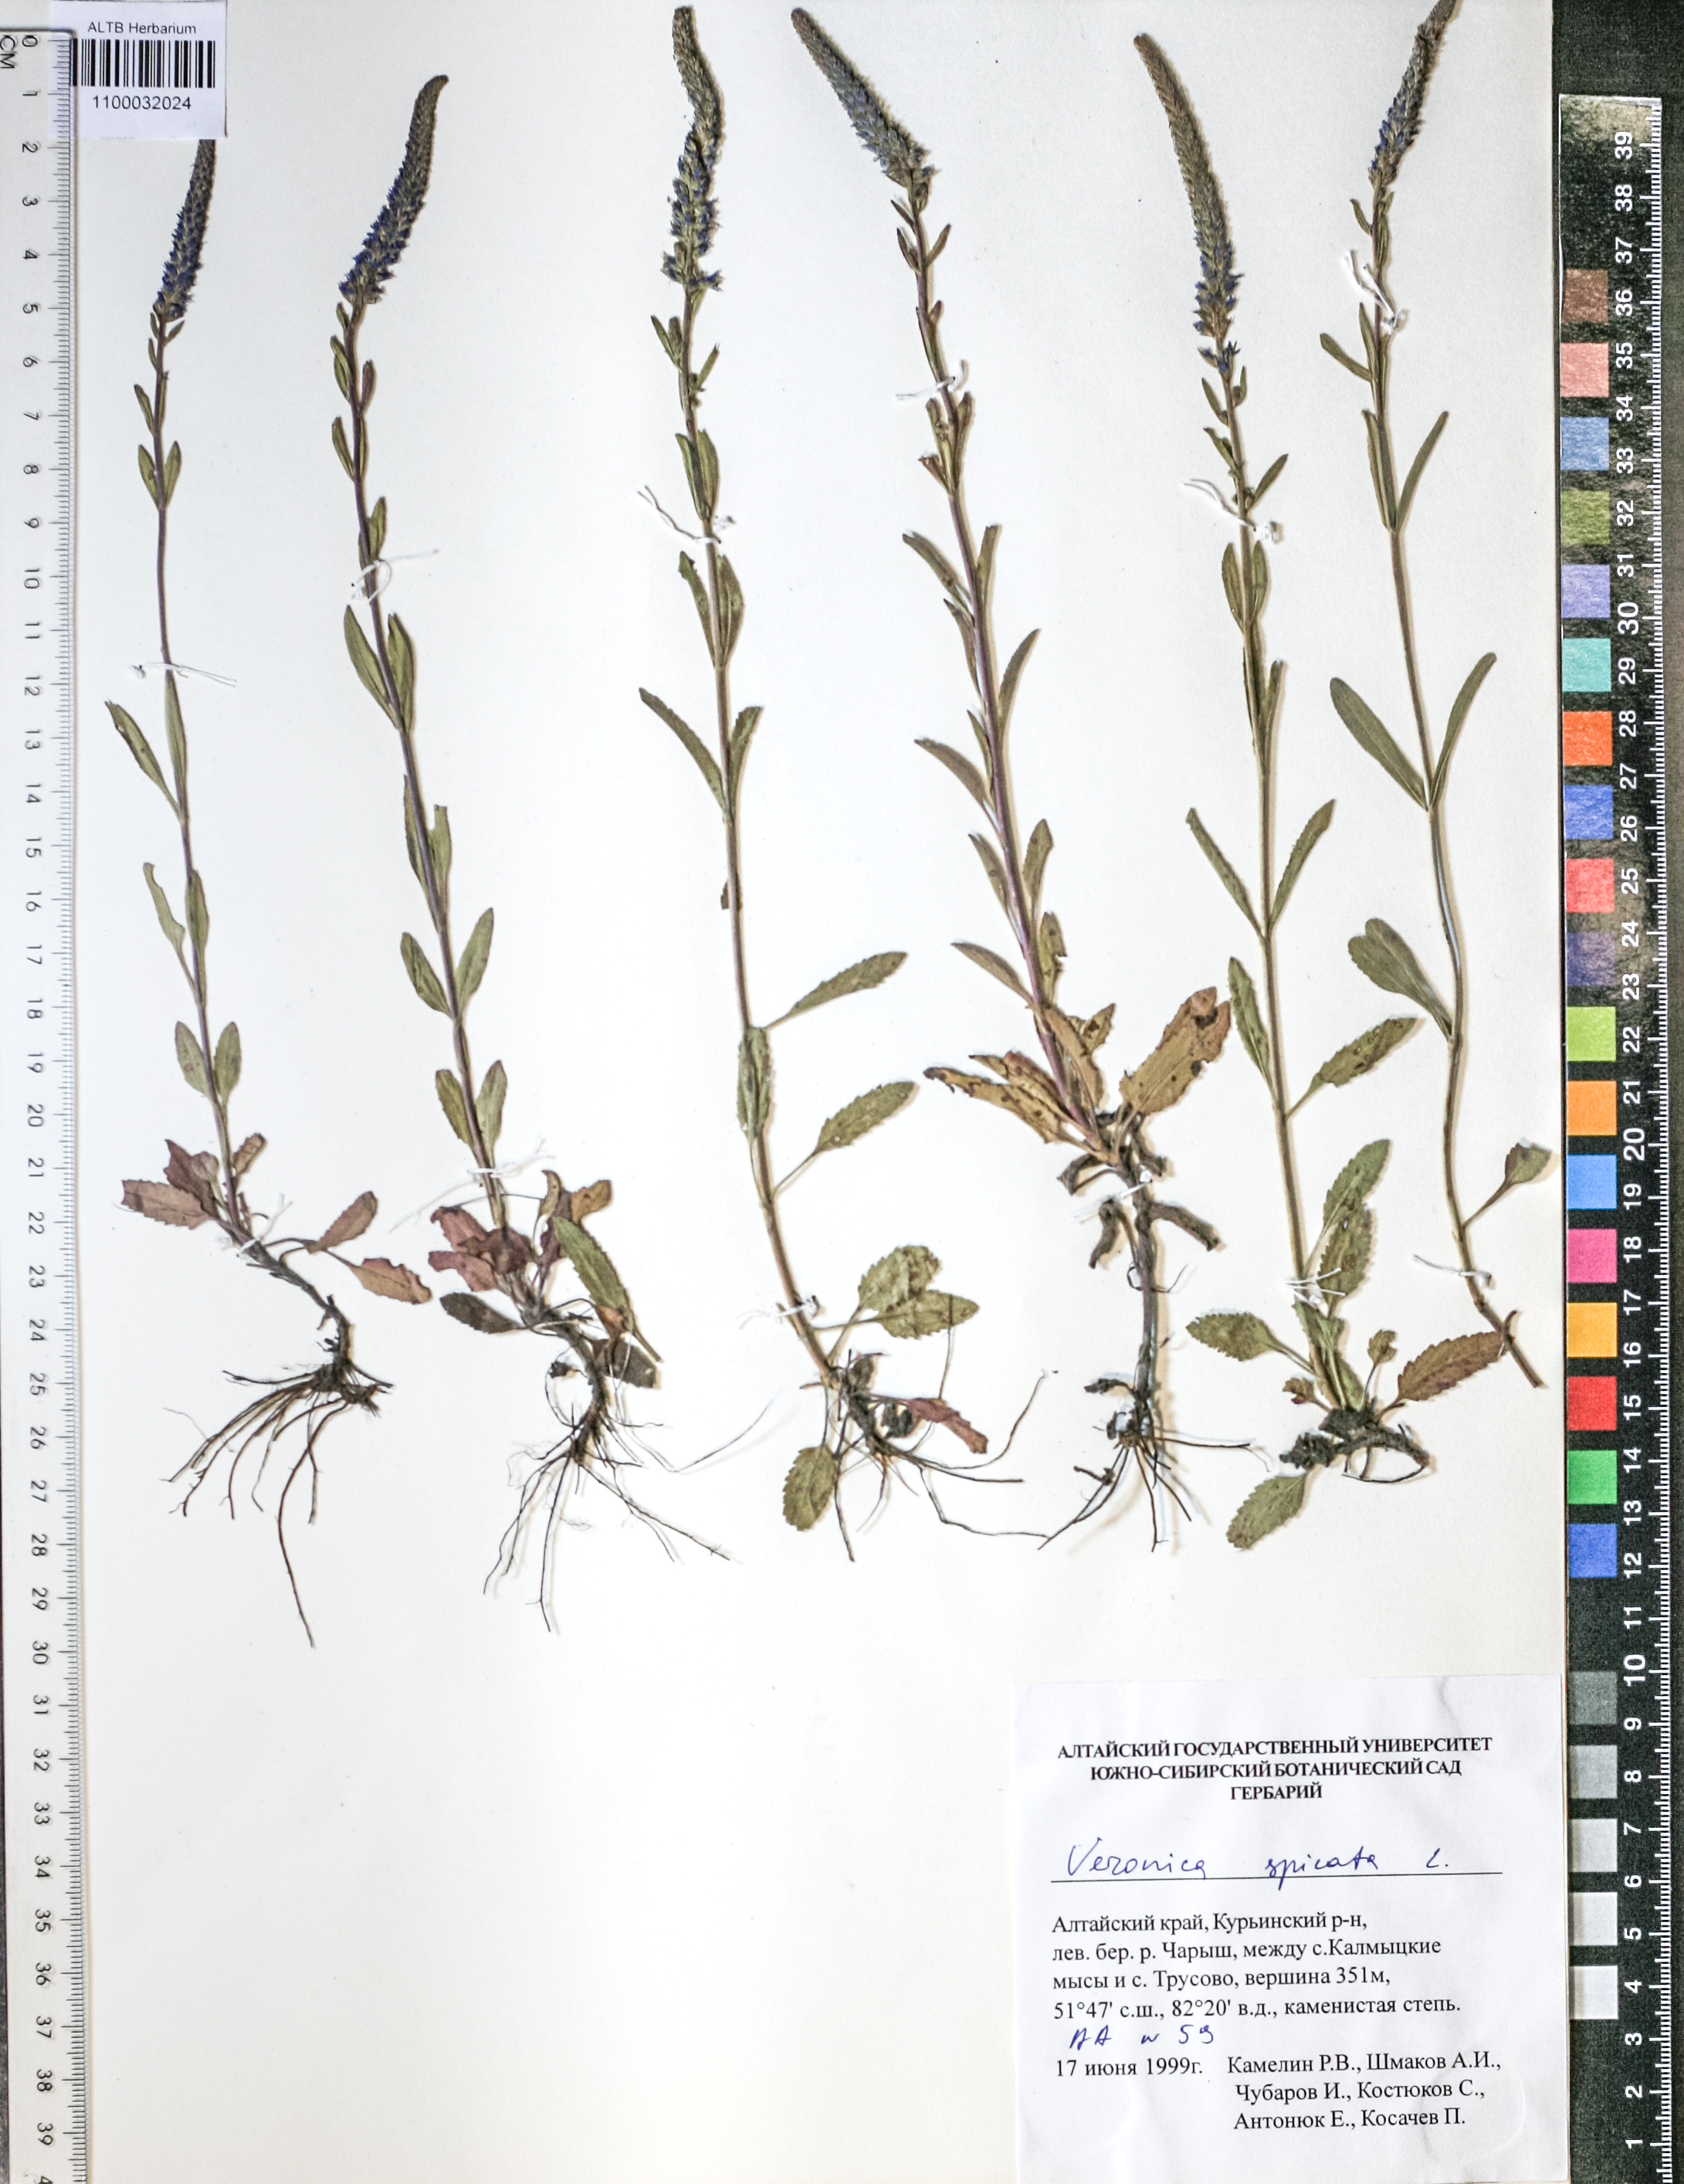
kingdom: Plantae
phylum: Tracheophyta
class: Magnoliopsida
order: Lamiales
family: Plantaginaceae
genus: Veronica
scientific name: Veronica spicata
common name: Spiked speedwell
